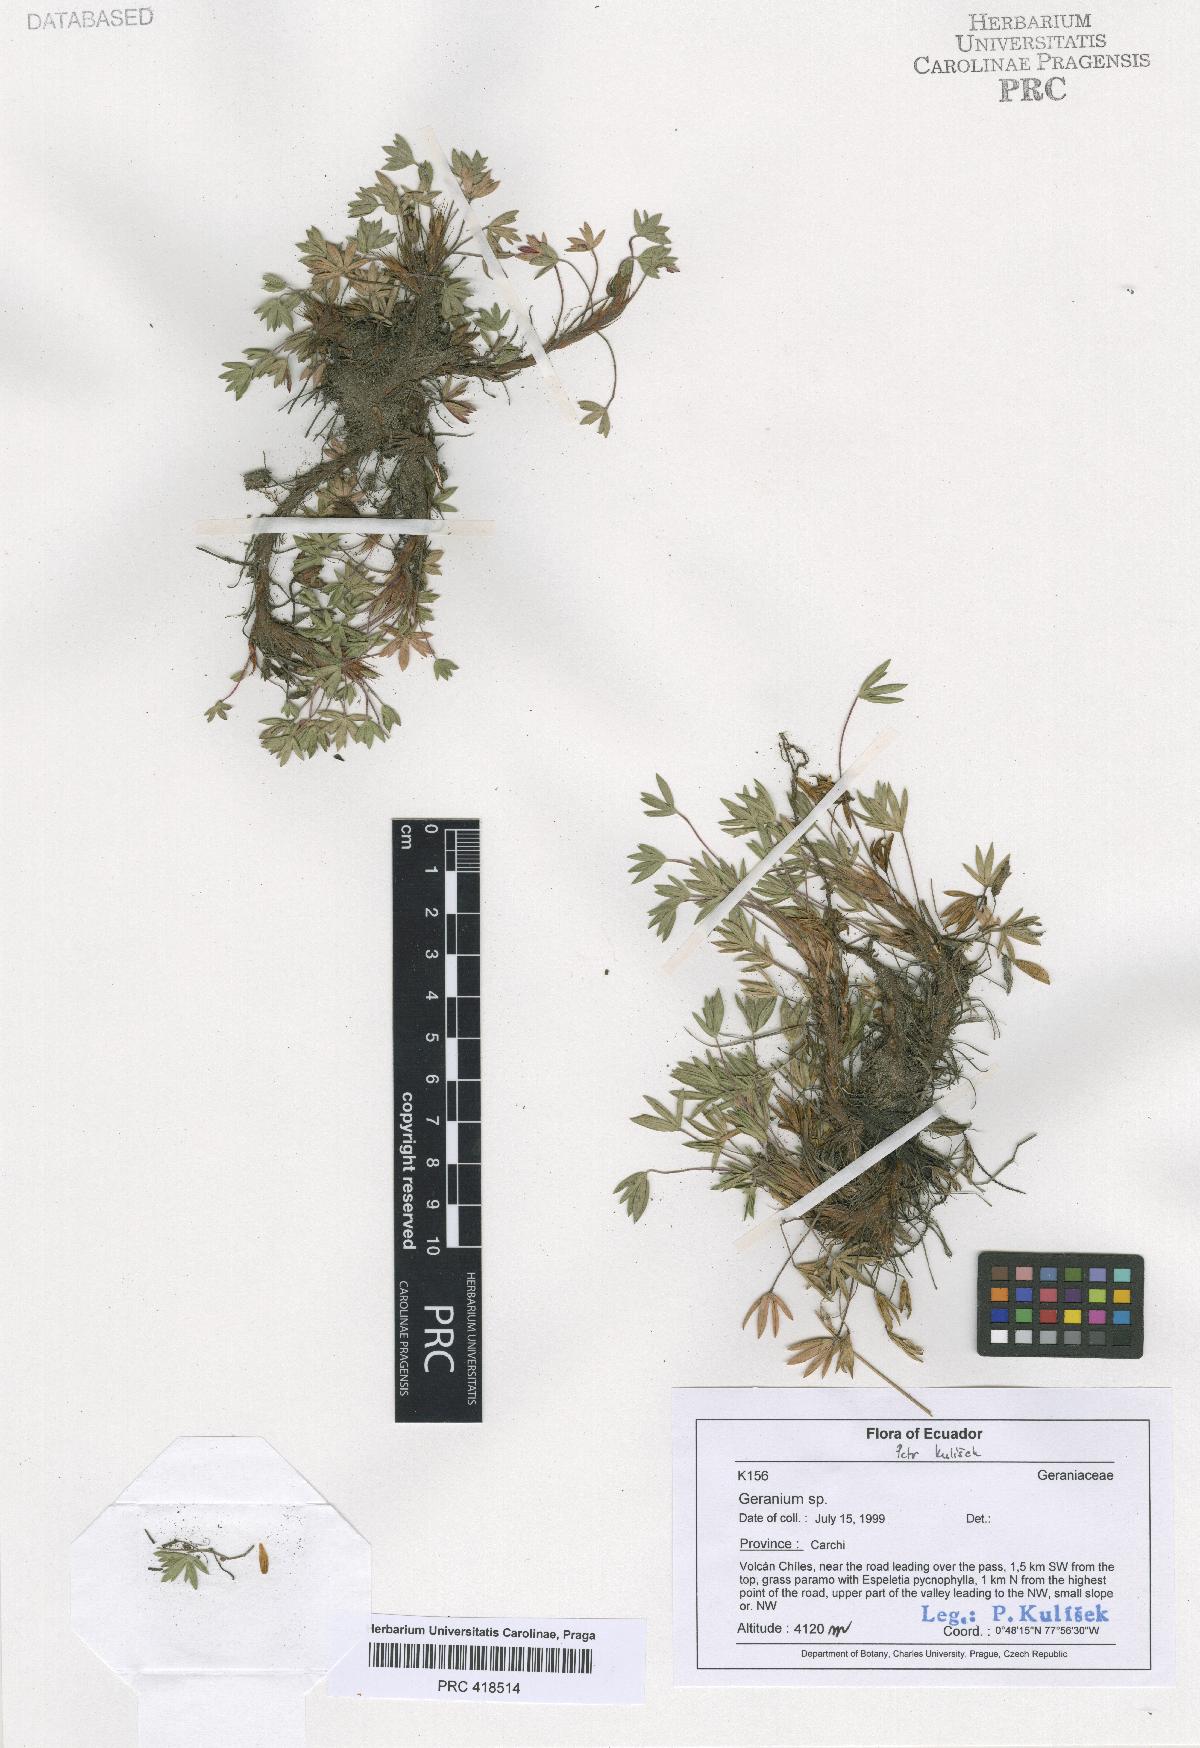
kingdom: Plantae
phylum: Tracheophyta
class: Magnoliopsida
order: Geraniales
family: Geraniaceae
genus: Geranium
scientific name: Geranium maniculatum
